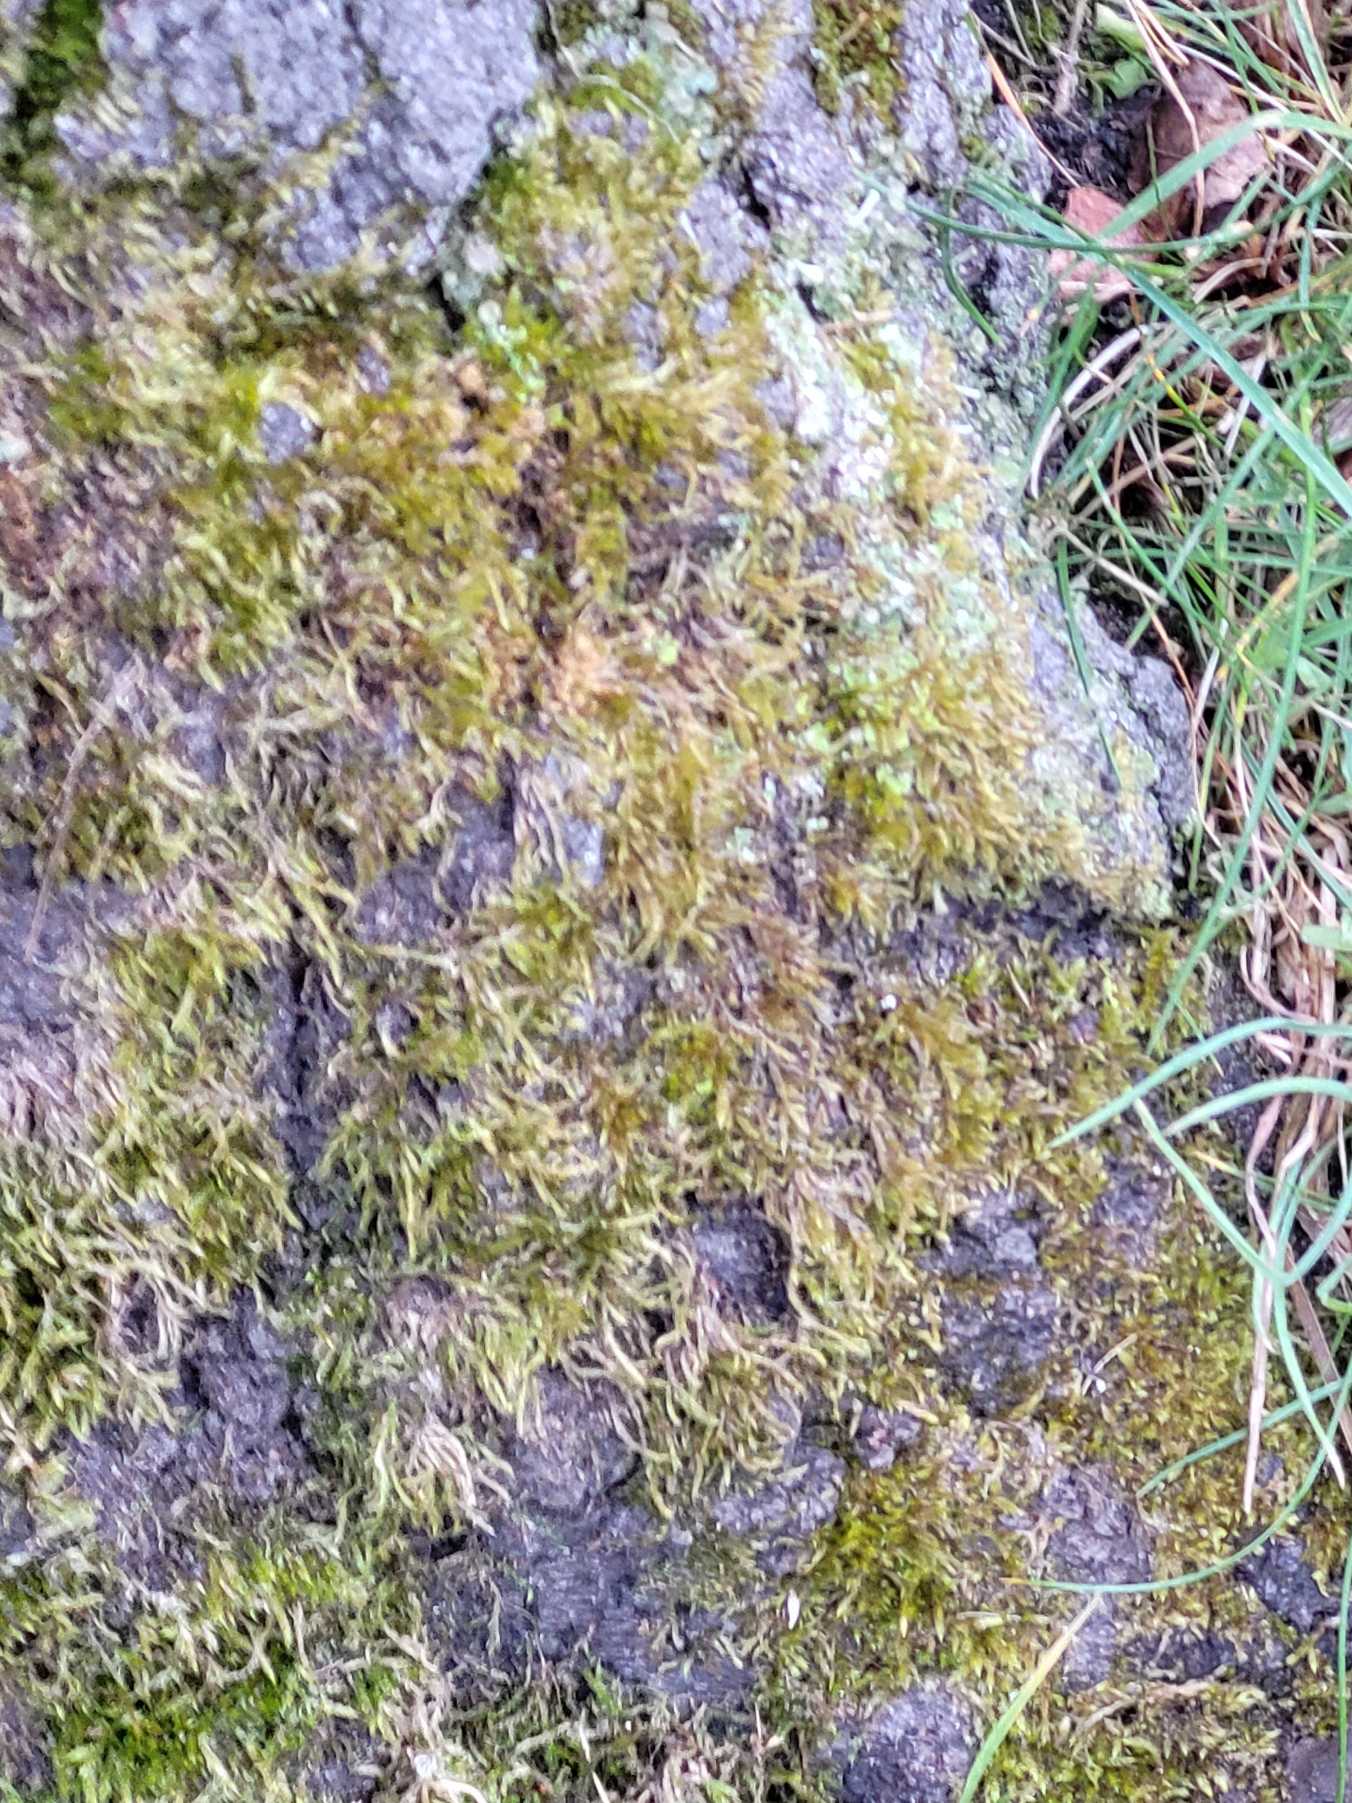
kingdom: Plantae
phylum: Bryophyta
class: Bryopsida
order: Hypnales
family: Hypnaceae
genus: Hypnum
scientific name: Hypnum
